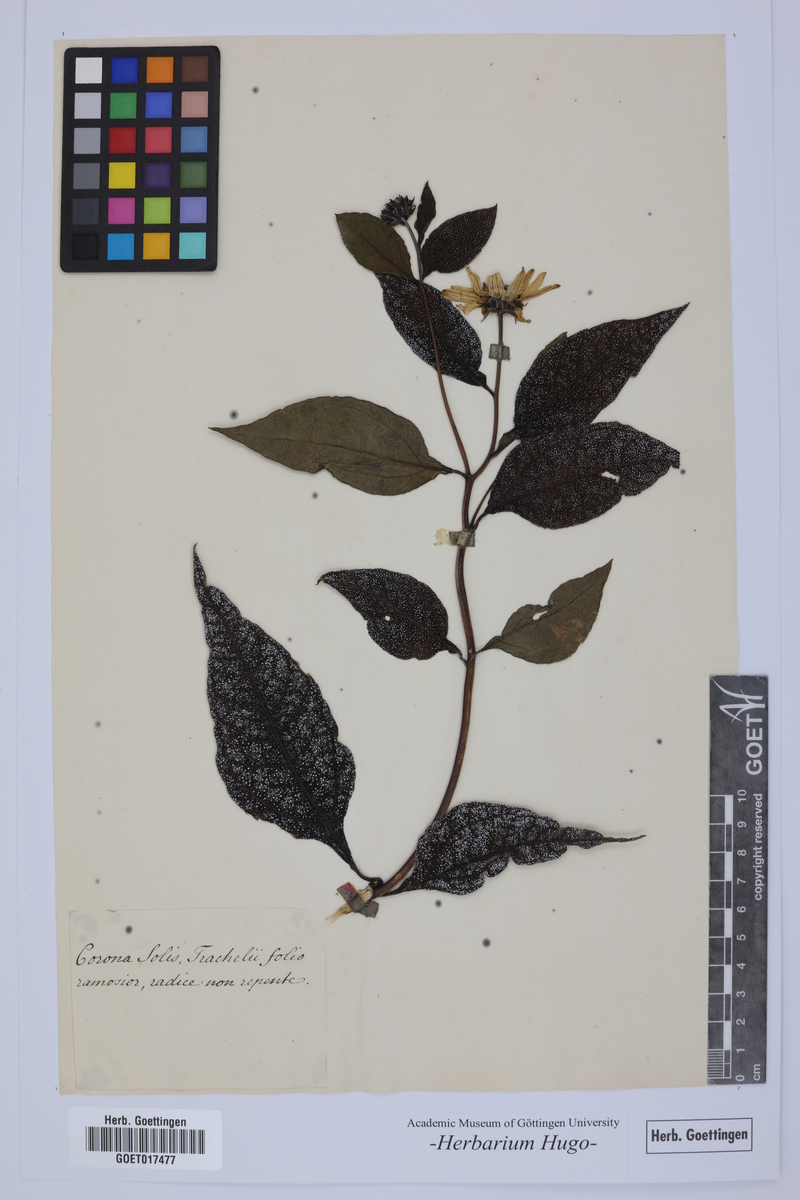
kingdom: Plantae
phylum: Tracheophyta
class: Liliopsida
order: Liliales
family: Liliaceae
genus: Fritillaria
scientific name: Fritillaria
